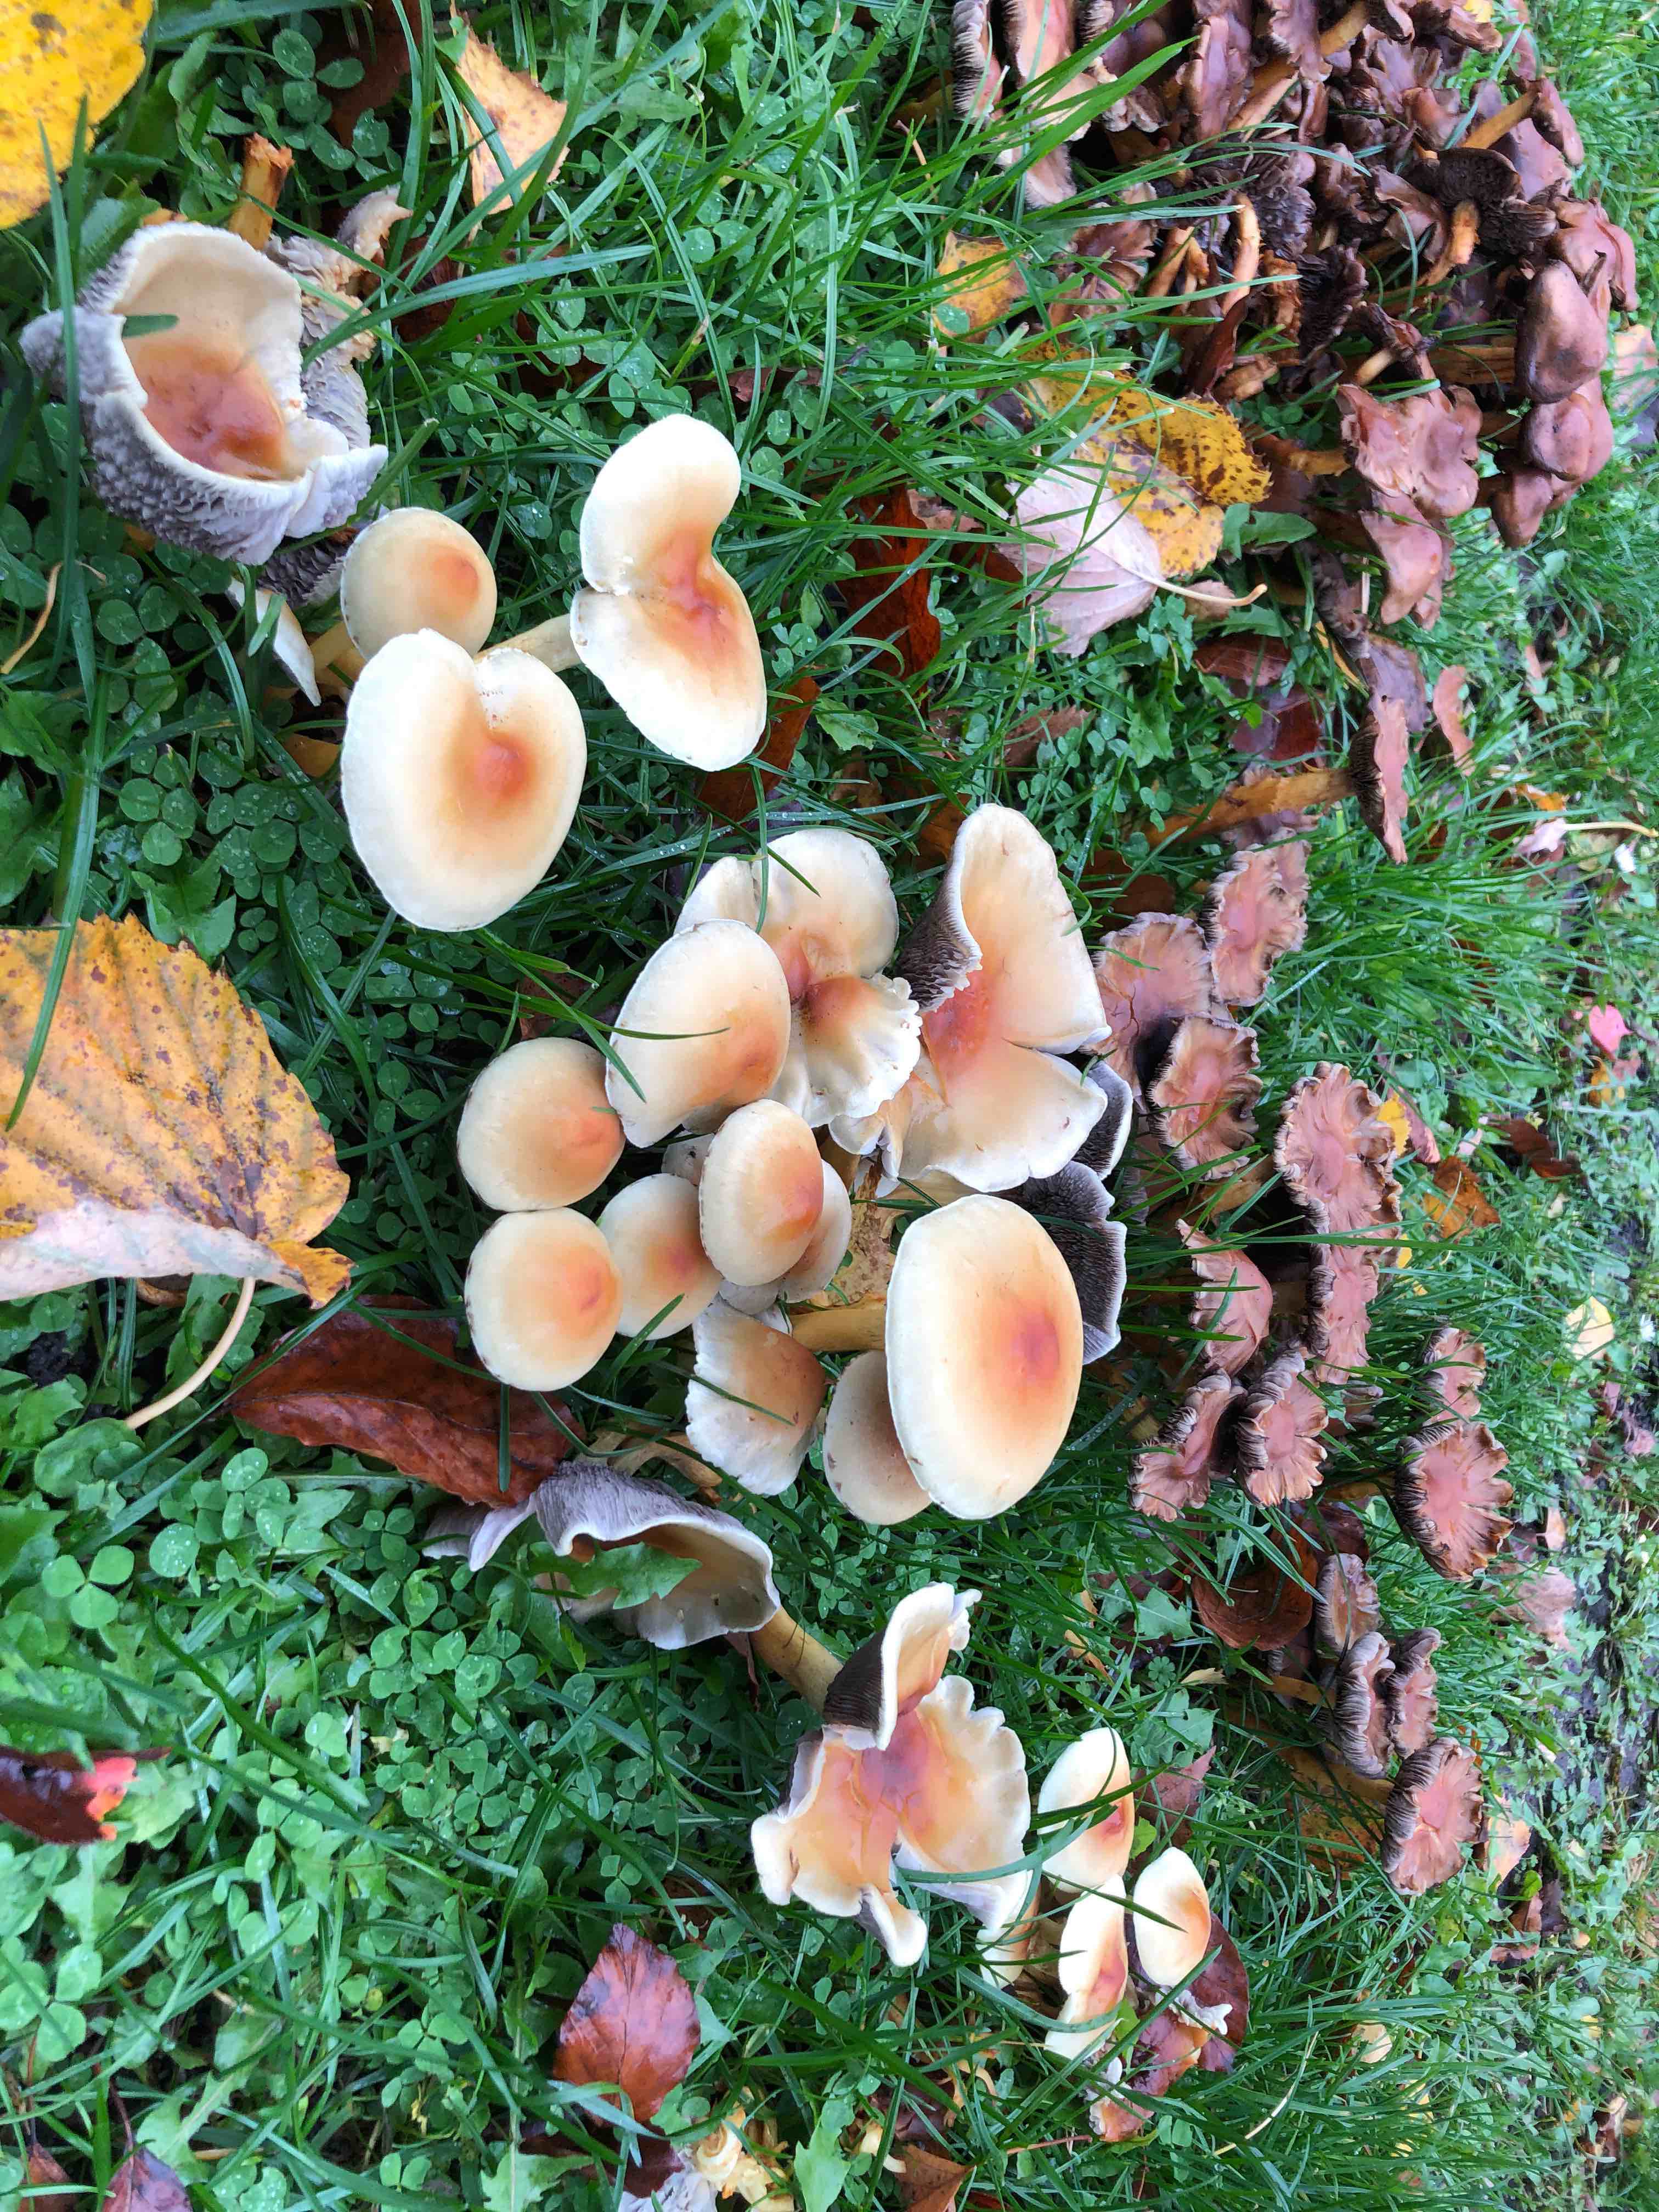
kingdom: Fungi
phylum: Basidiomycota
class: Agaricomycetes
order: Agaricales
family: Strophariaceae
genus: Hypholoma
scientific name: Hypholoma fasciculare
